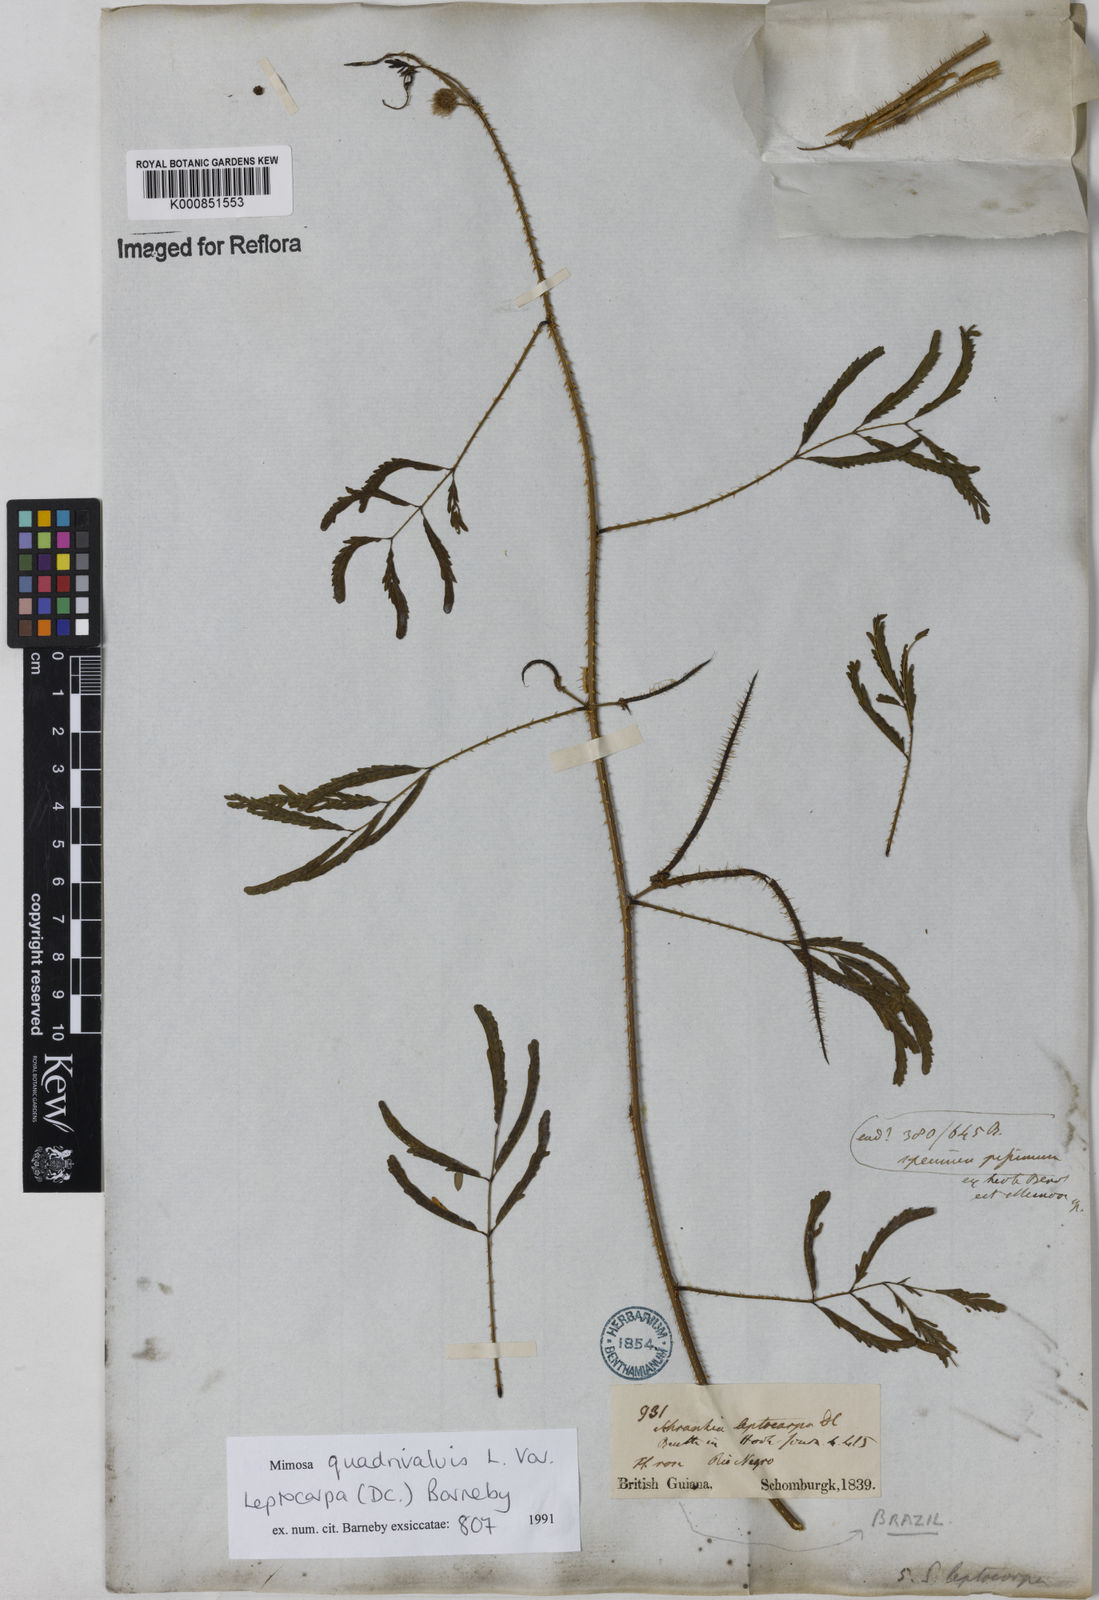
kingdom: Plantae
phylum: Tracheophyta
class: Magnoliopsida
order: Fabales
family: Fabaceae
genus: Mimosa
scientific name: Mimosa candollei
